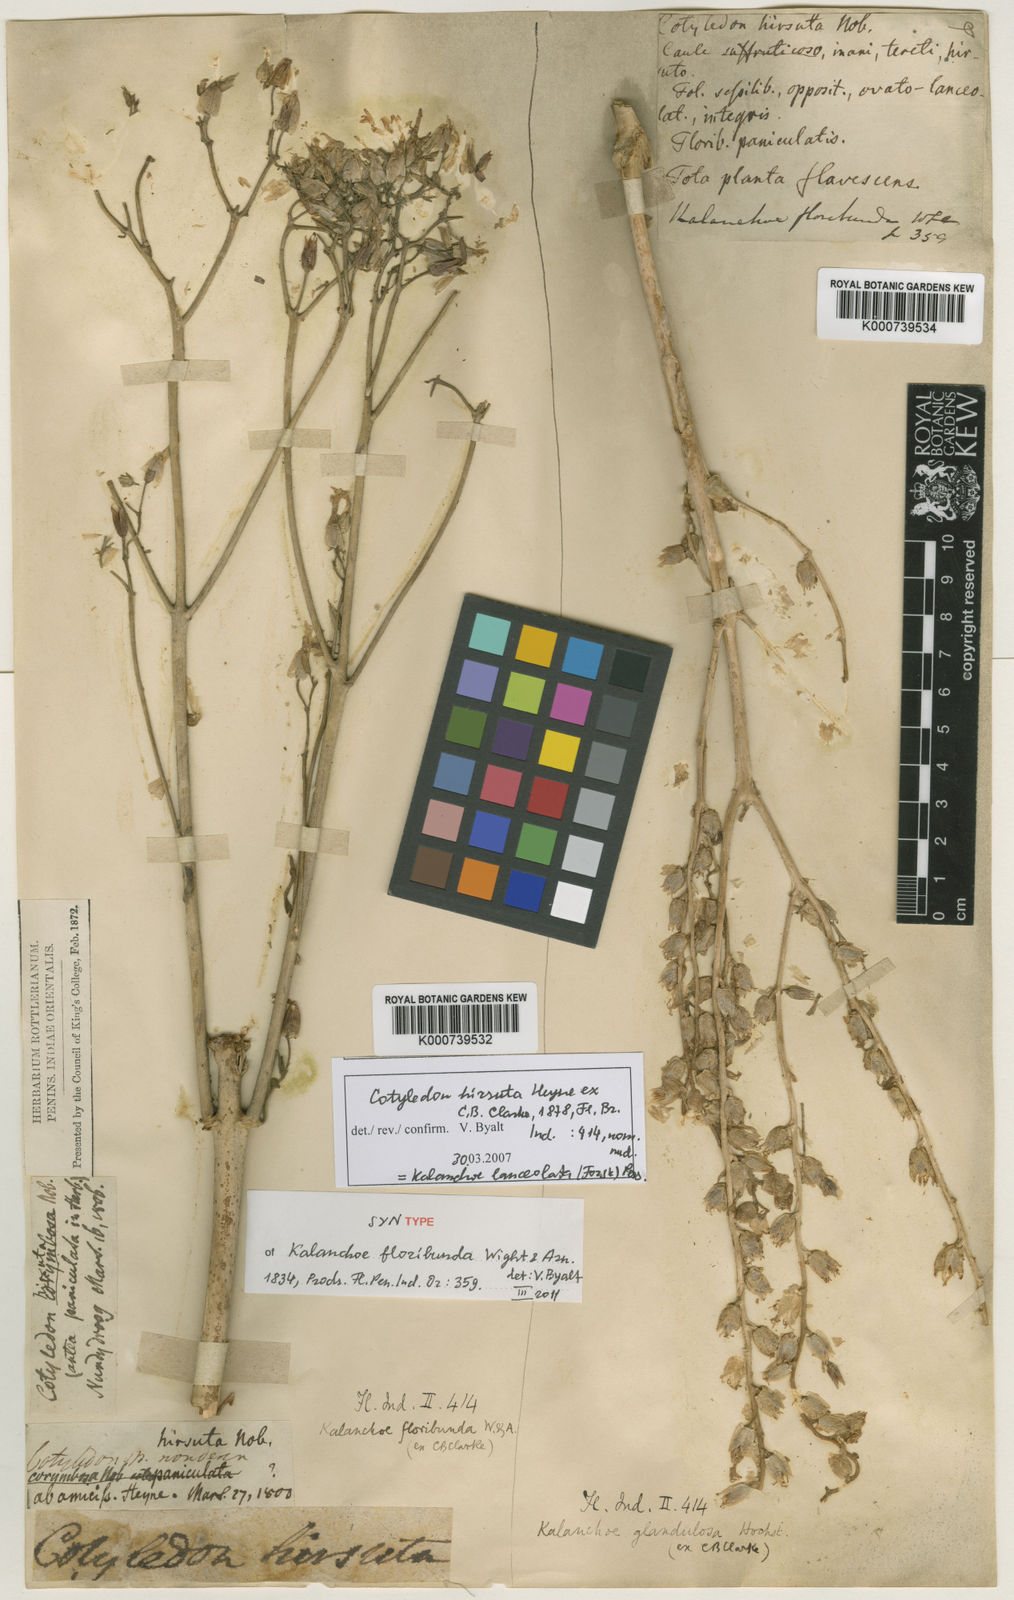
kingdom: Plantae
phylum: Tracheophyta
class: Magnoliopsida
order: Saxifragales
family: Crassulaceae
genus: Kalanchoe
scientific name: Kalanchoe lanceolata
